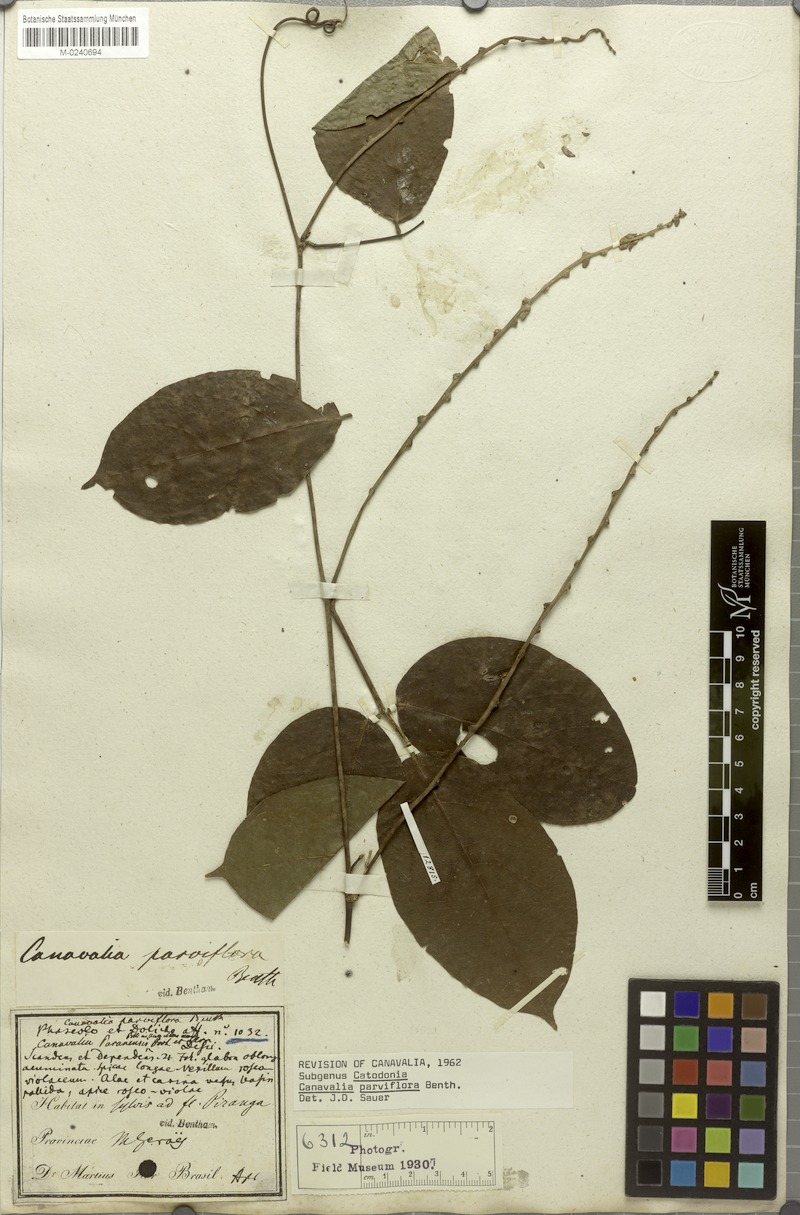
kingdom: Plantae
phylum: Tracheophyta
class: Magnoliopsida
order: Fabales
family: Fabaceae
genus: Canavalia
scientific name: Canavalia parviflora
